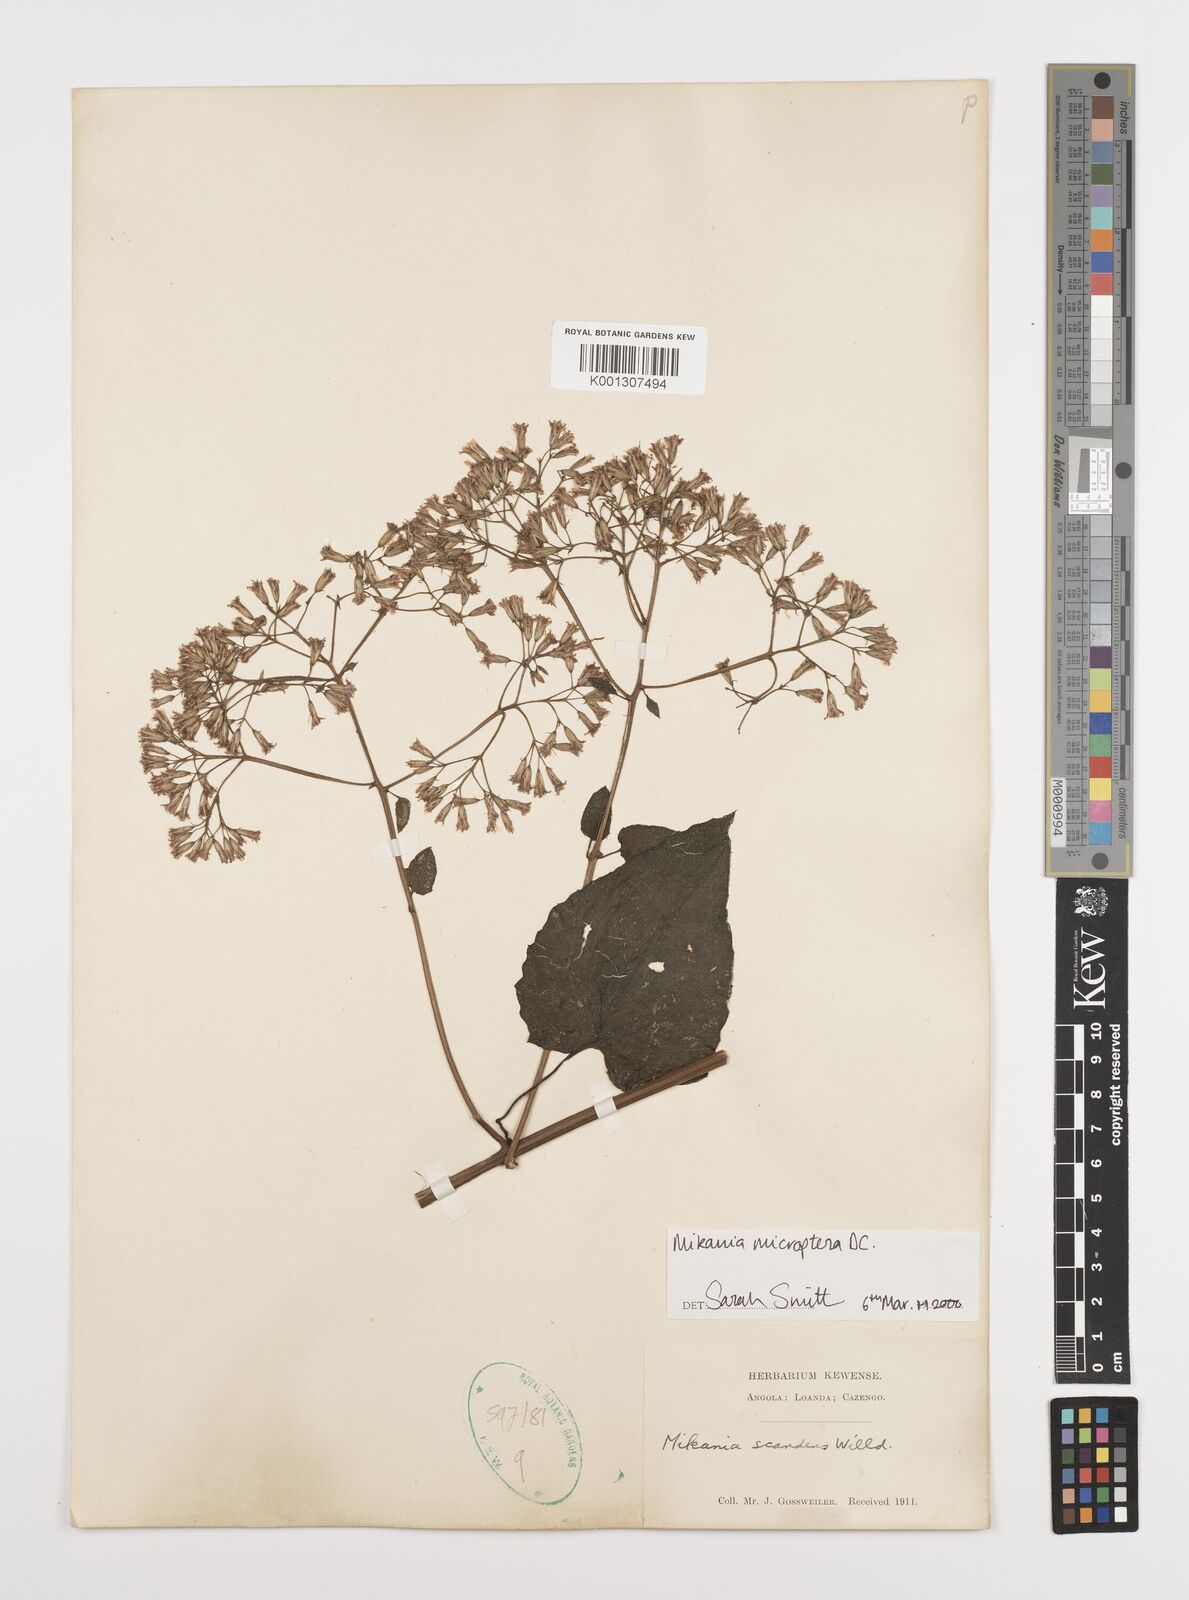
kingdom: Plantae
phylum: Tracheophyta
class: Magnoliopsida
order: Asterales
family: Asteraceae
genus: Mikania
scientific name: Mikania microptera
